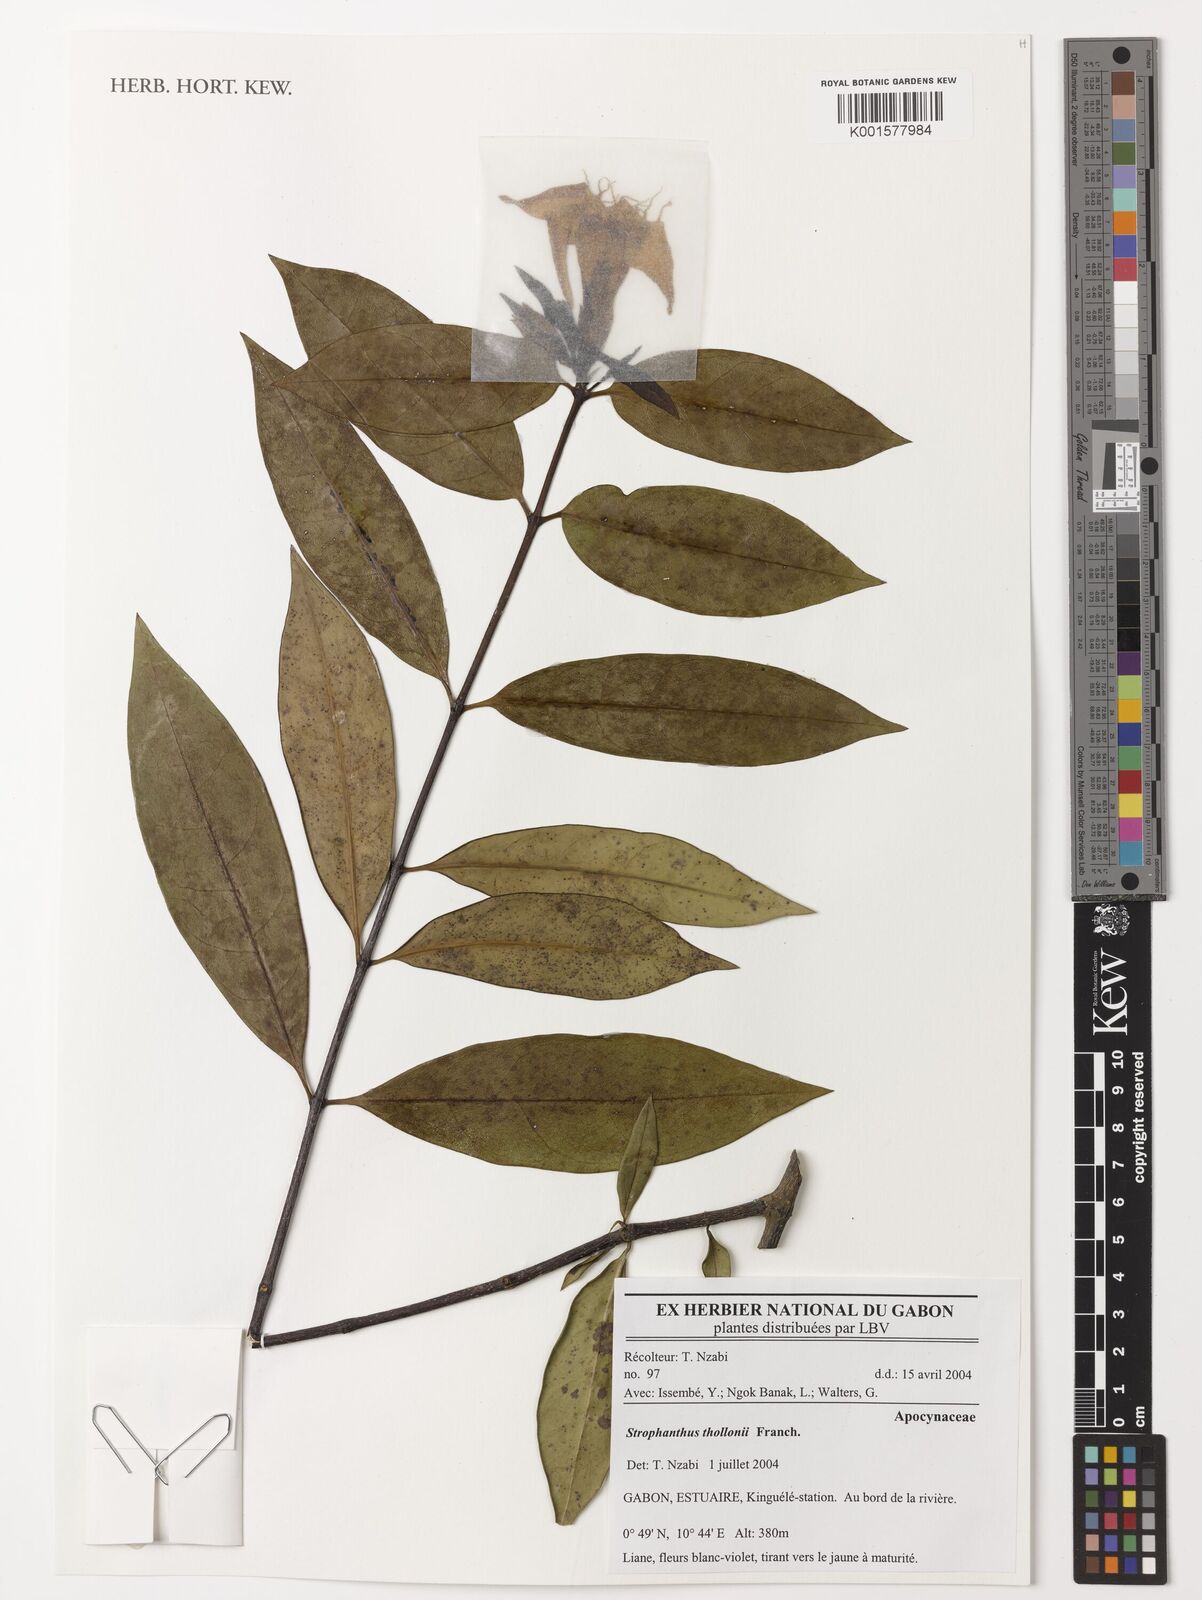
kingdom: Plantae
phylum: Tracheophyta
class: Magnoliopsida
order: Gentianales
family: Apocynaceae
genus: Strophanthus
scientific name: Strophanthus thollonii
